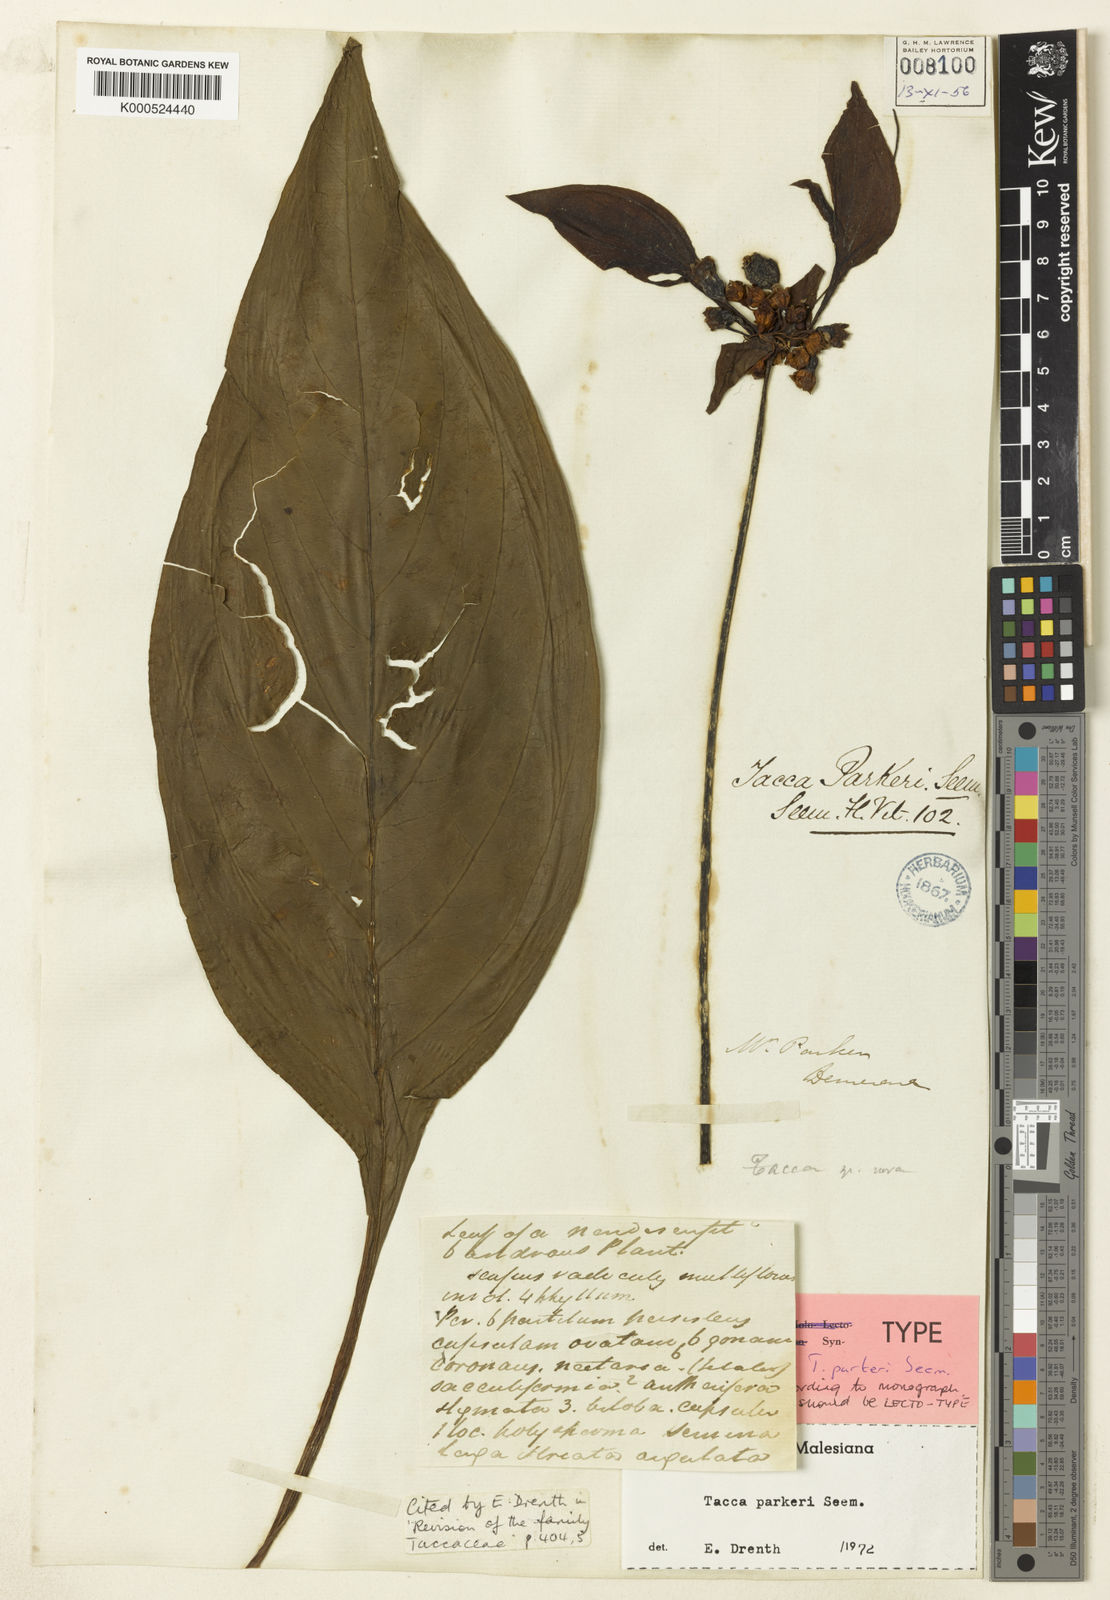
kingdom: Plantae
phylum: Tracheophyta
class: Liliopsida
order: Dioscoreales
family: Dioscoreaceae
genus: Tacca
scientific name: Tacca parkeri
